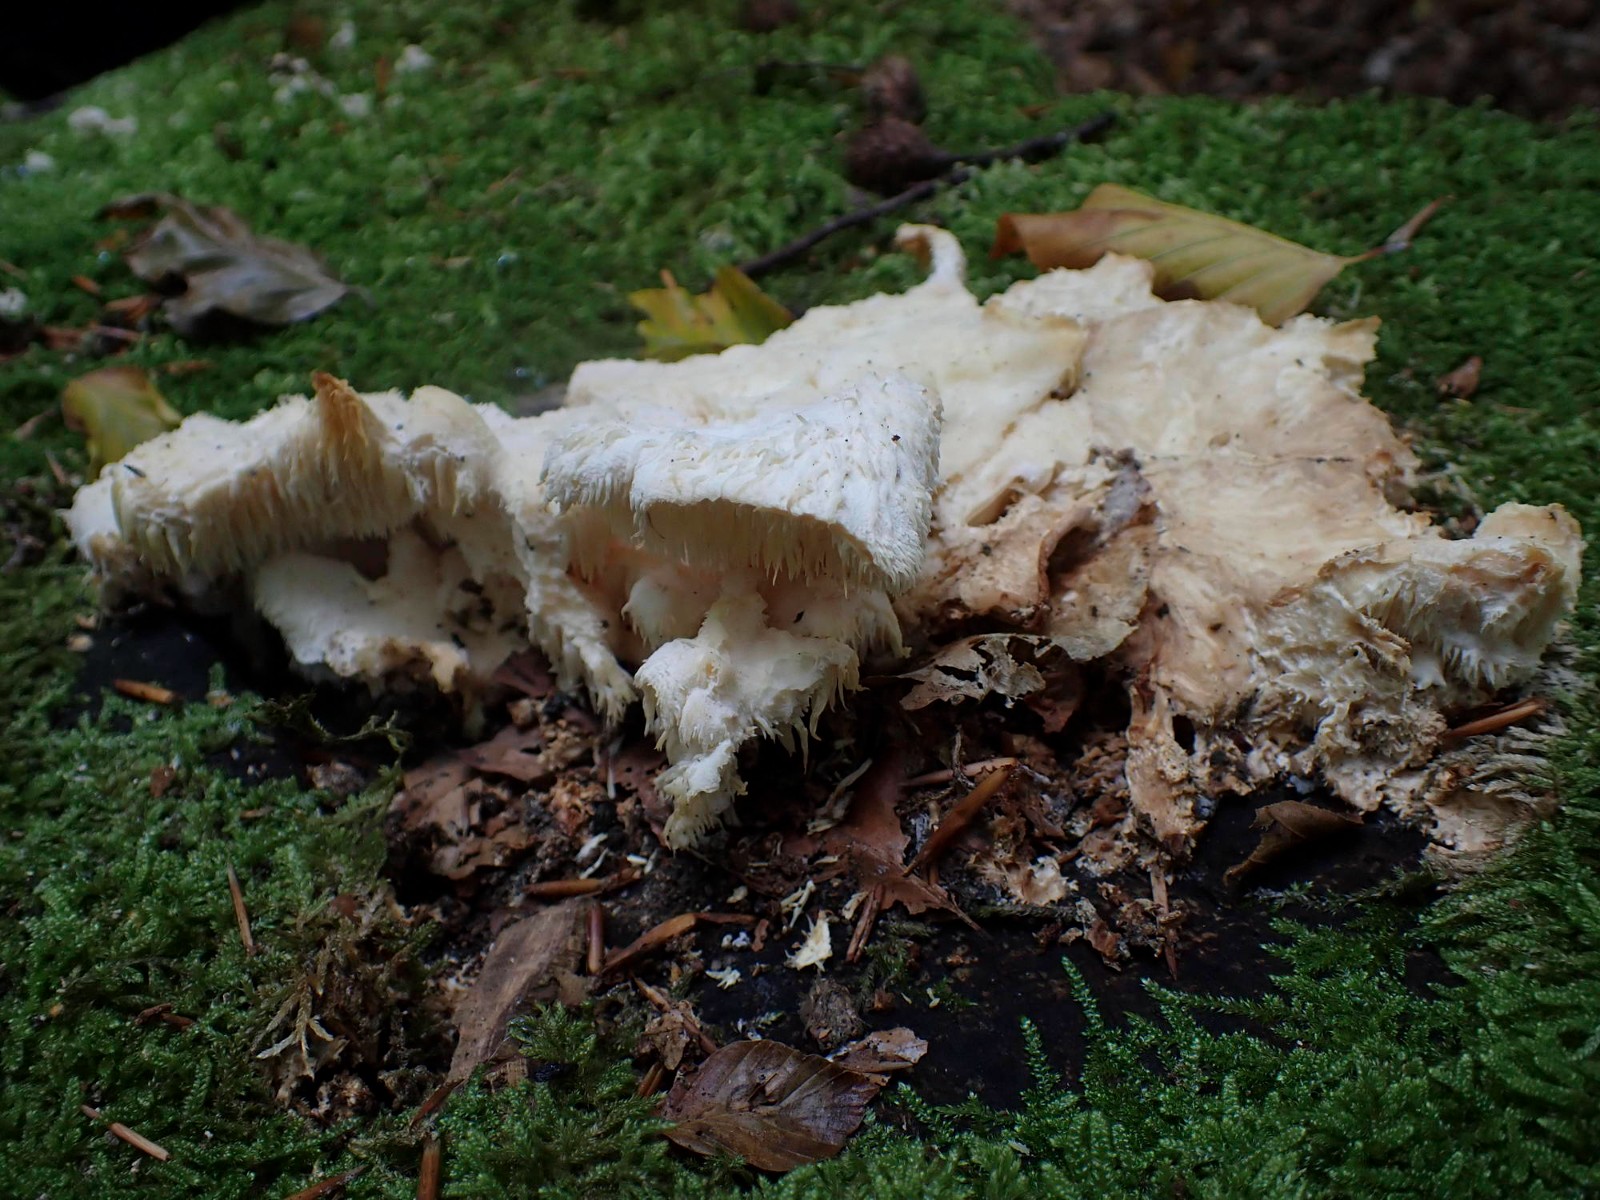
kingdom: Fungi
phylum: Basidiomycota
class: Agaricomycetes
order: Russulales
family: Hericiaceae
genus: Hericium
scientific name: Hericium cirrhatum
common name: børstepigsvamp
